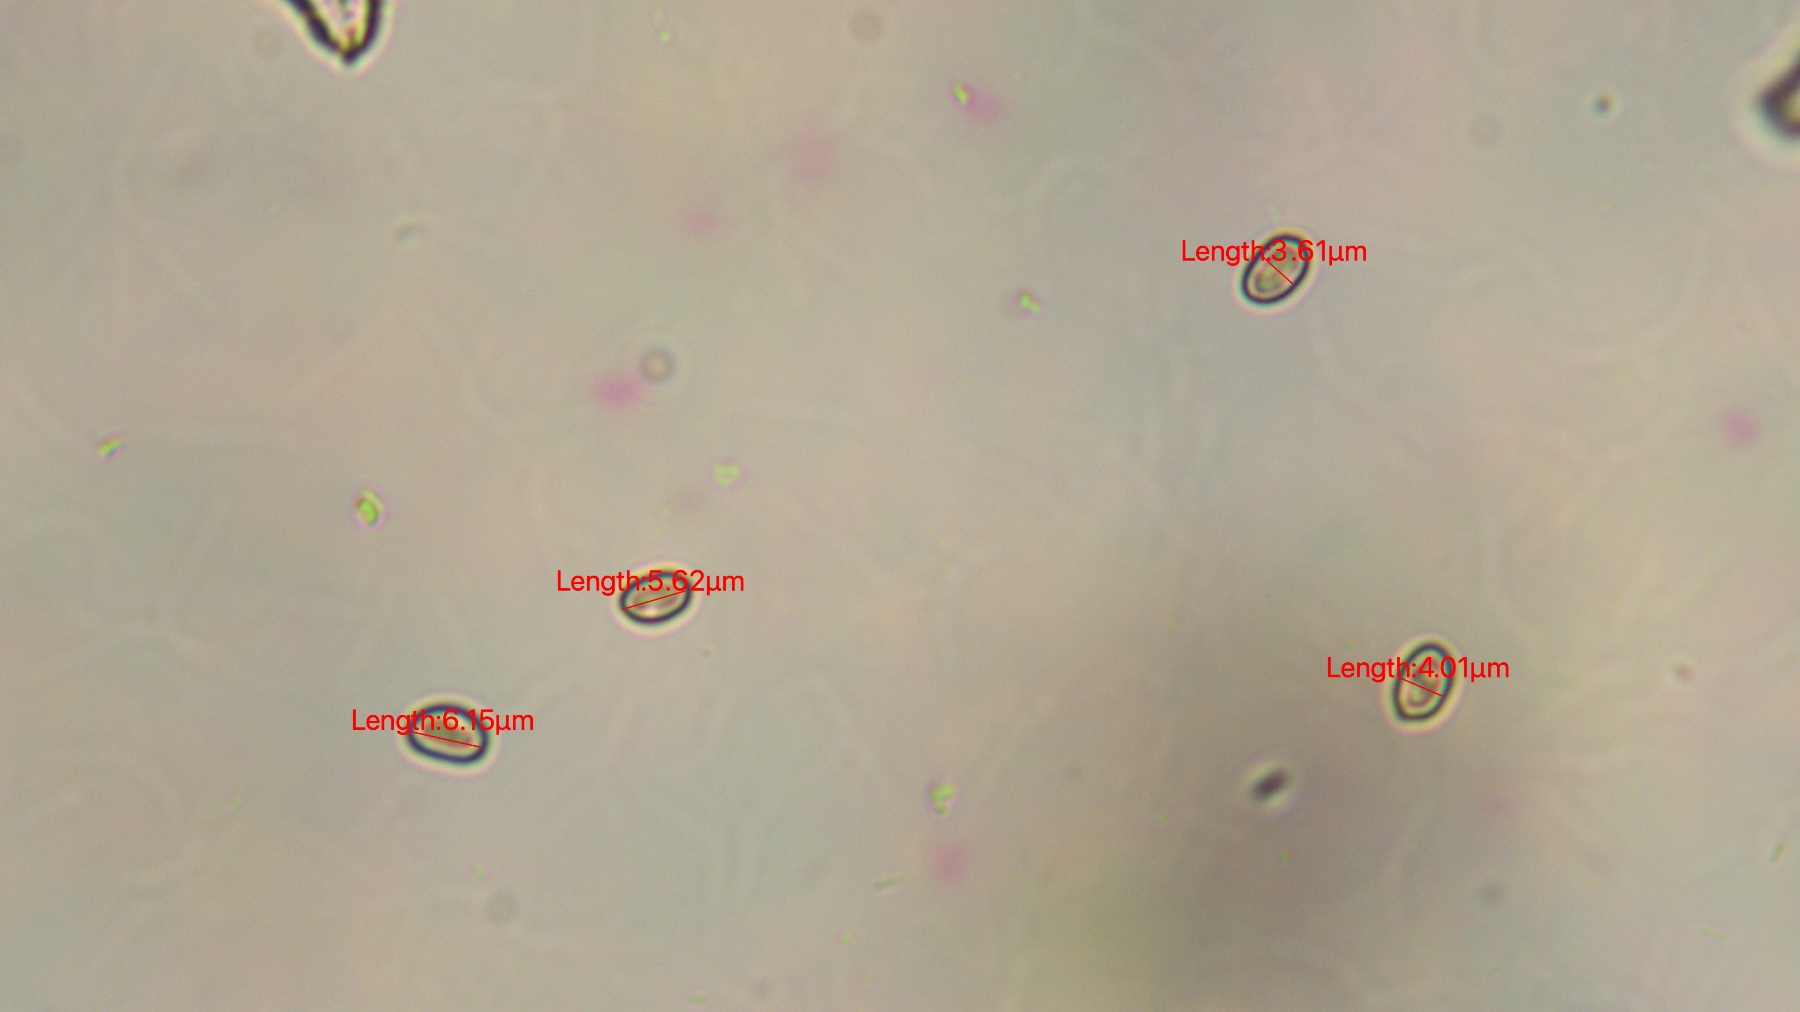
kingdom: Fungi
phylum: Basidiomycota
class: Agaricomycetes
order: Agaricales
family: Tubariaceae
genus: Flammulaster
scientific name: Flammulaster muricatus
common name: pigget grynskælhat
